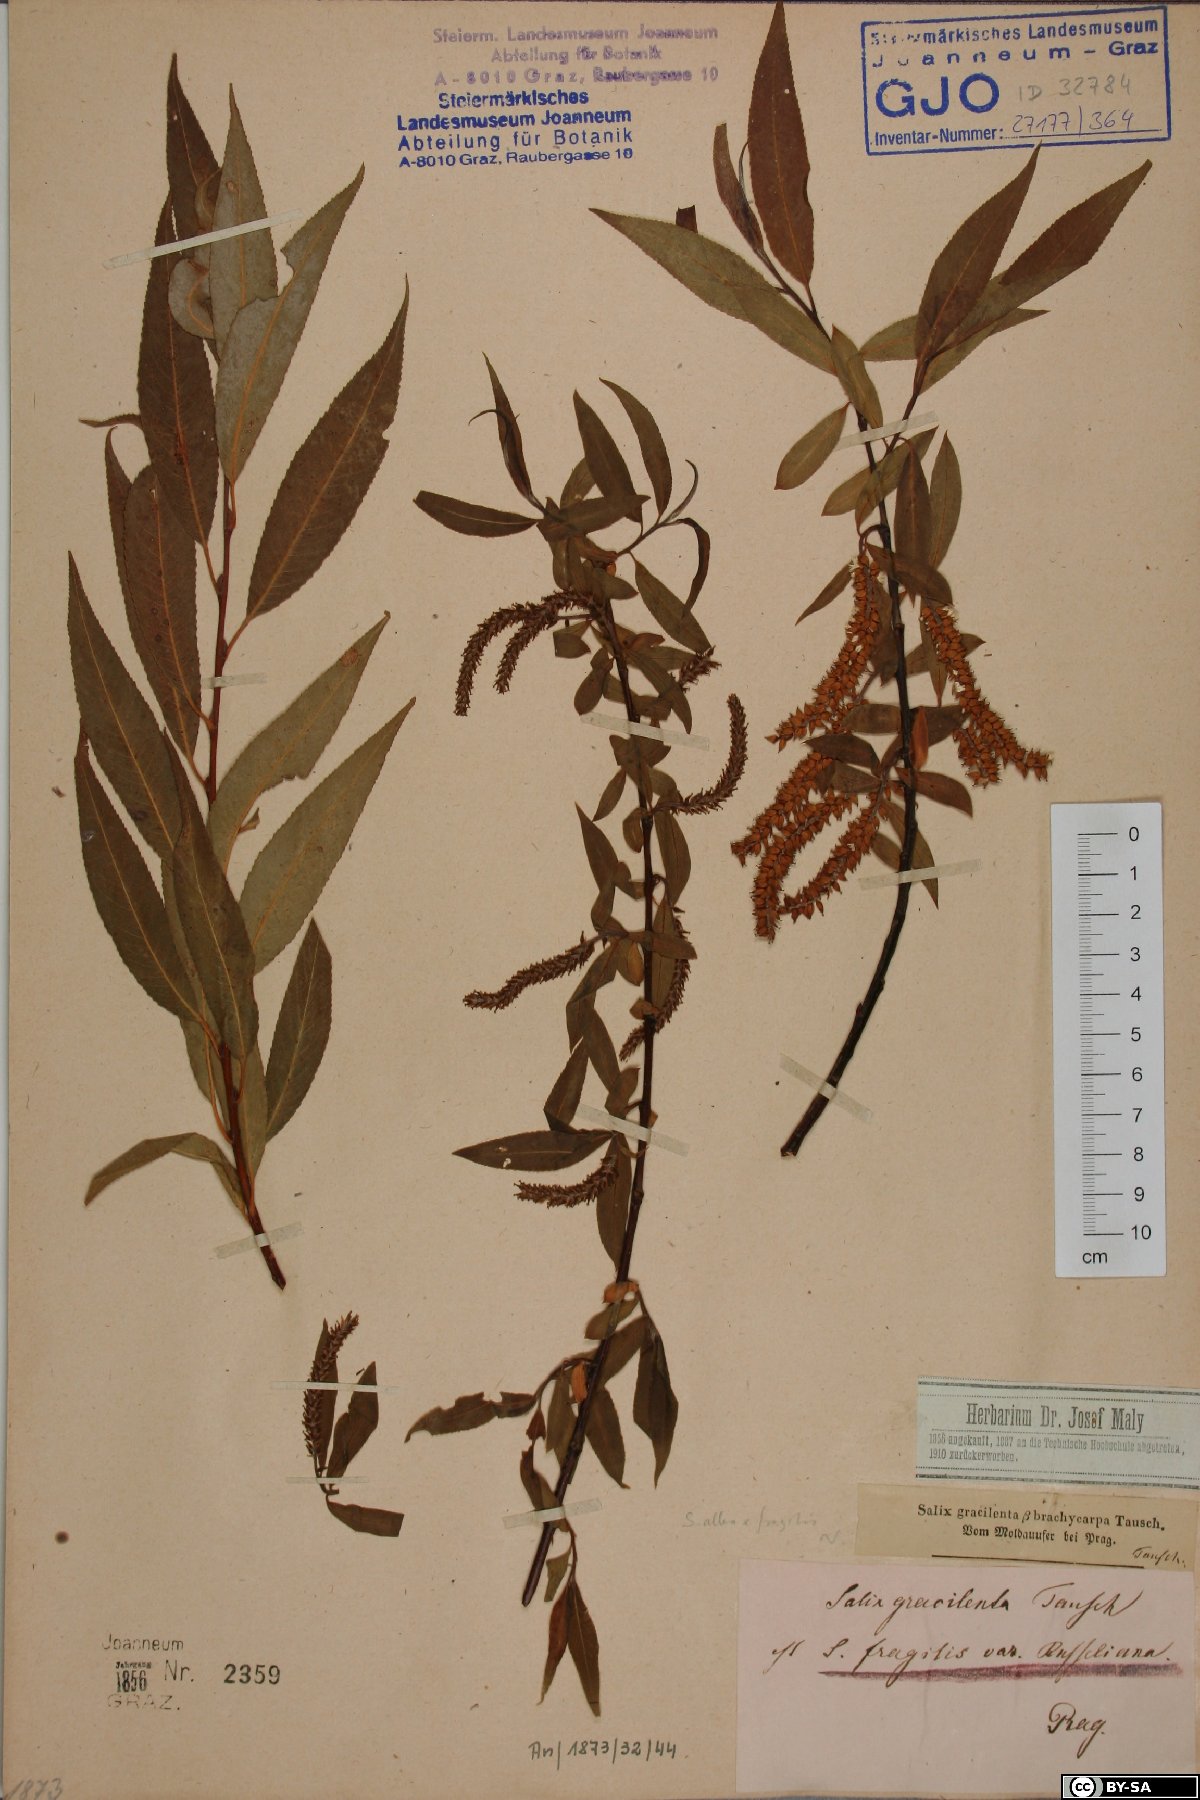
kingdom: Plantae
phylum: Tracheophyta
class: Magnoliopsida
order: Malpighiales
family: Salicaceae
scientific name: Salicaceae
